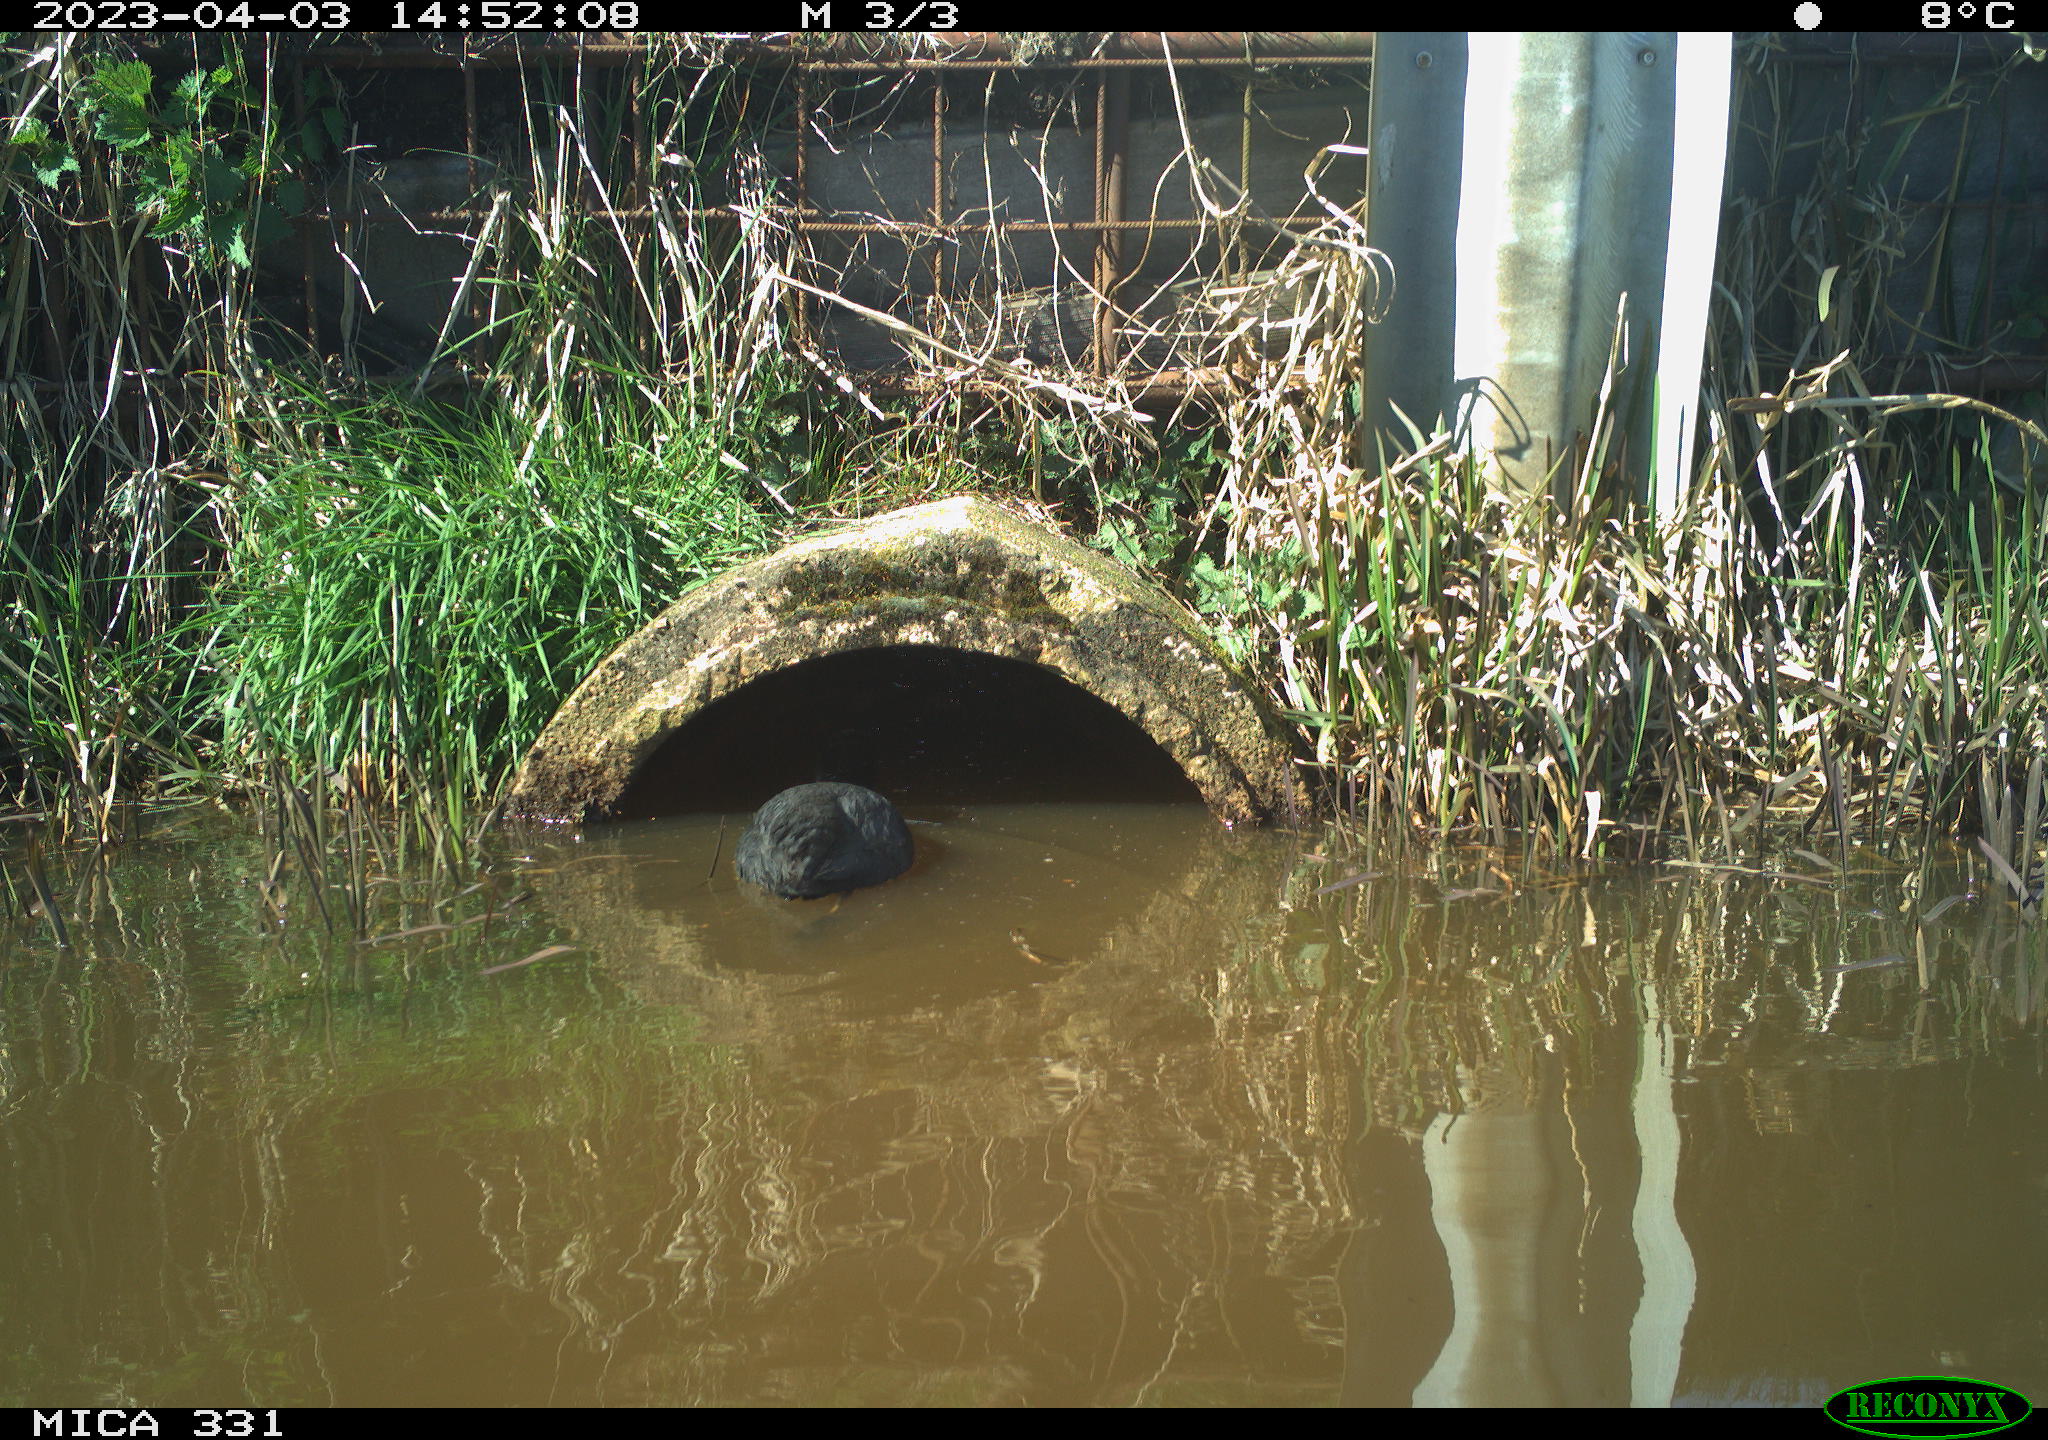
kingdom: Animalia
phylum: Chordata
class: Aves
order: Gruiformes
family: Rallidae
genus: Fulica
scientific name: Fulica atra
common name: Eurasian coot
